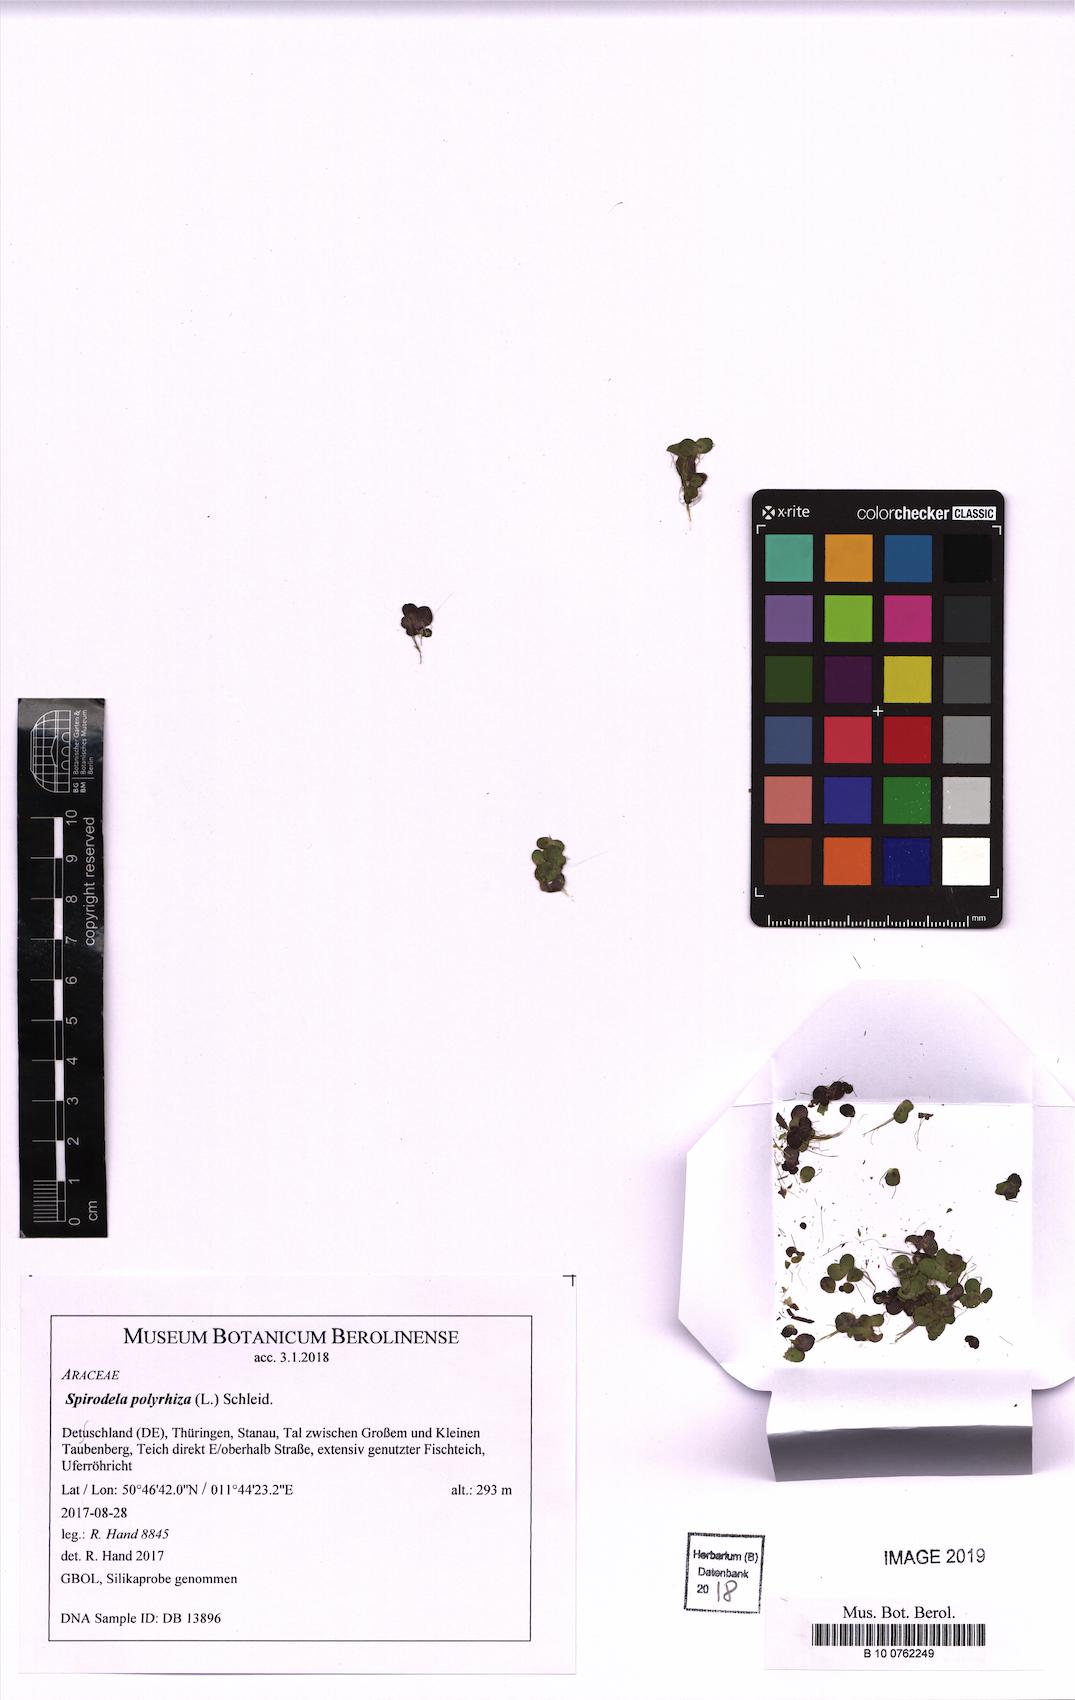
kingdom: Plantae
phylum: Tracheophyta
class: Liliopsida
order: Alismatales
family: Araceae
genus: Spirodela
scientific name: Spirodela polyrhiza
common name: Great duckweed
